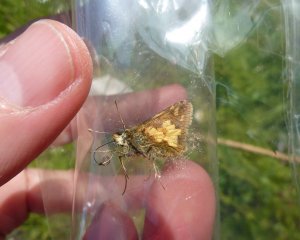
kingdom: Animalia
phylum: Arthropoda
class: Insecta
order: Lepidoptera
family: Hesperiidae
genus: Polites
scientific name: Polites coras
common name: Peck's Skipper
